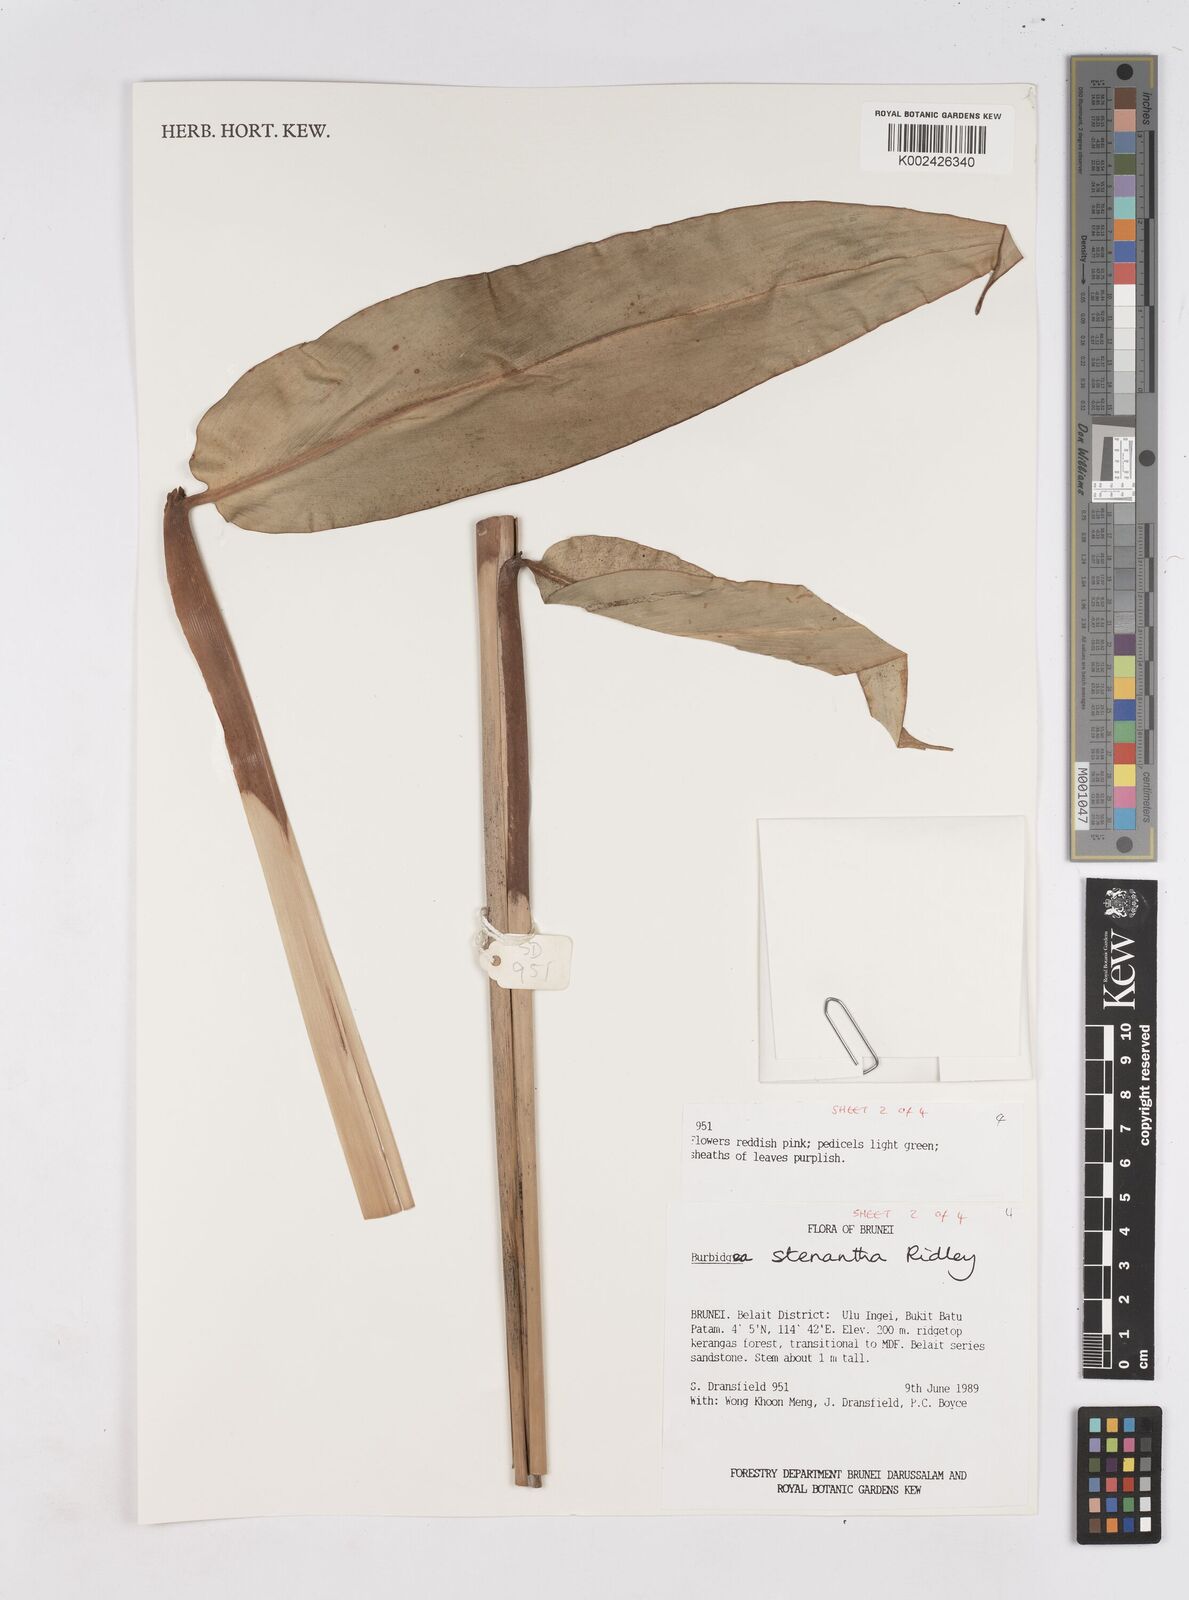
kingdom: Plantae
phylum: Tracheophyta
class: Liliopsida
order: Zingiberales
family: Zingiberaceae
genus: Burbidgea
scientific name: Burbidgea stenantha
